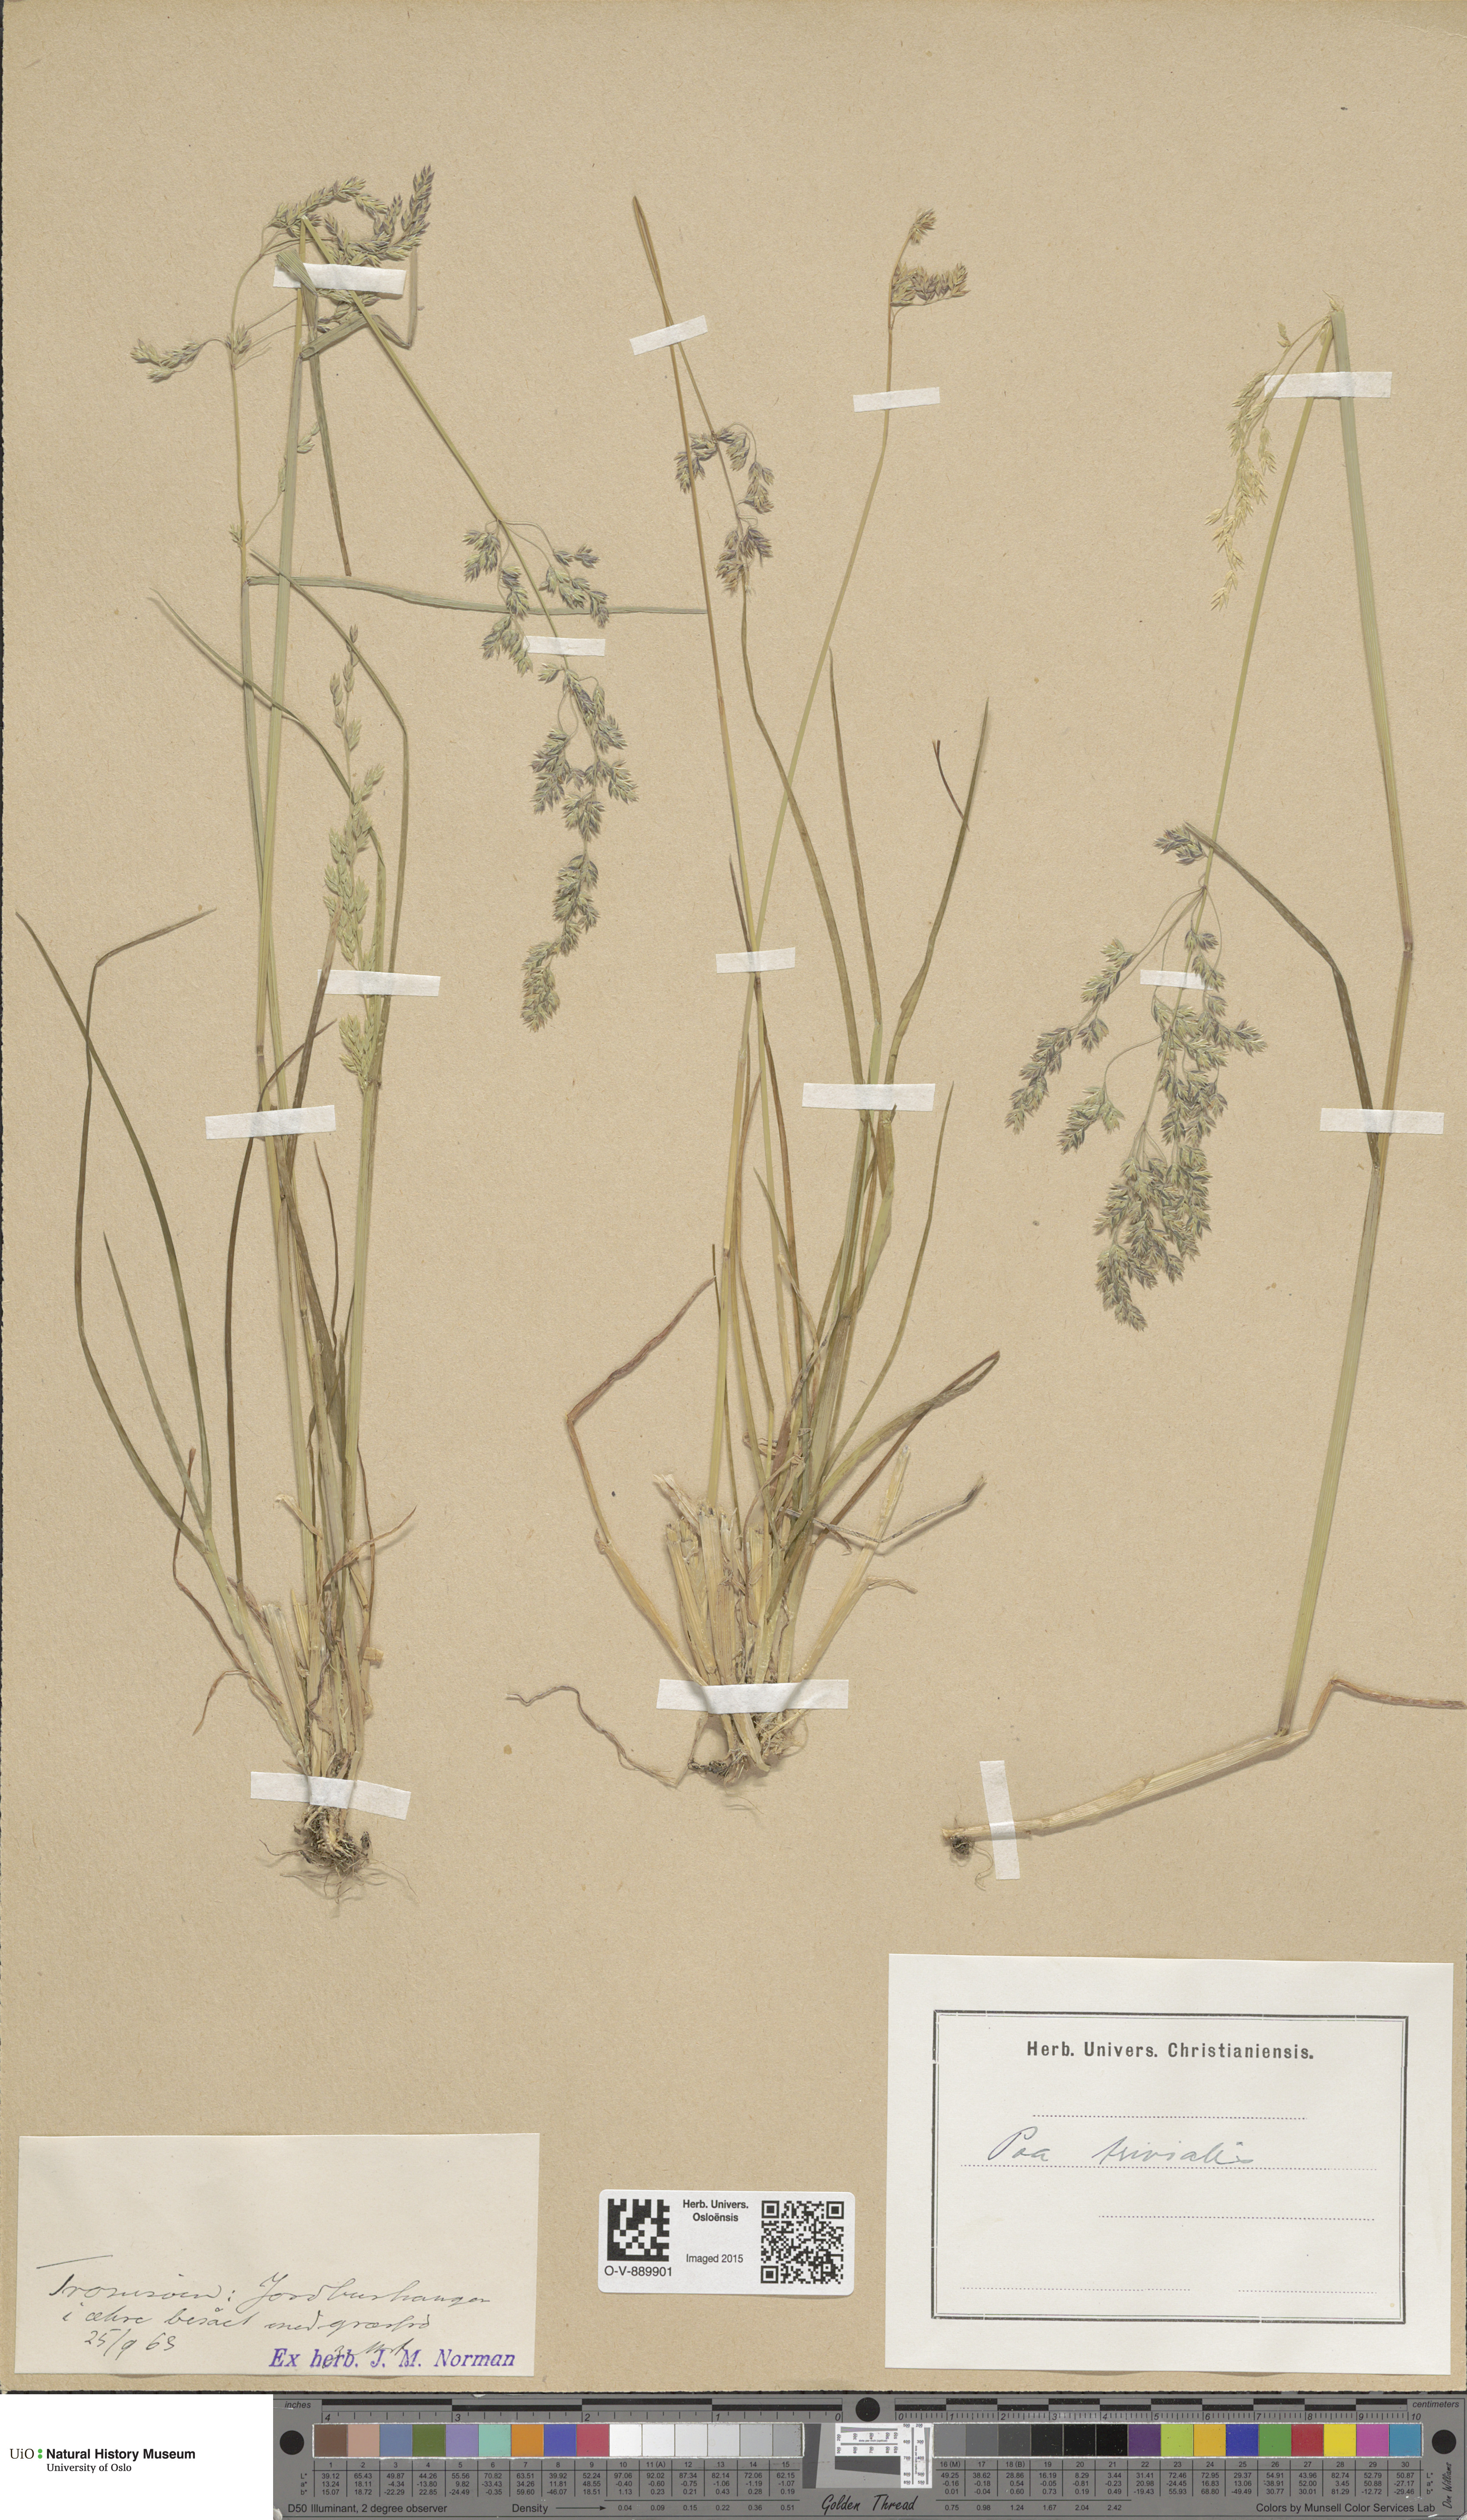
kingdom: Plantae
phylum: Tracheophyta
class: Liliopsida
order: Poales
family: Poaceae
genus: Poa
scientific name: Poa trivialis
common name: Rough bluegrass
